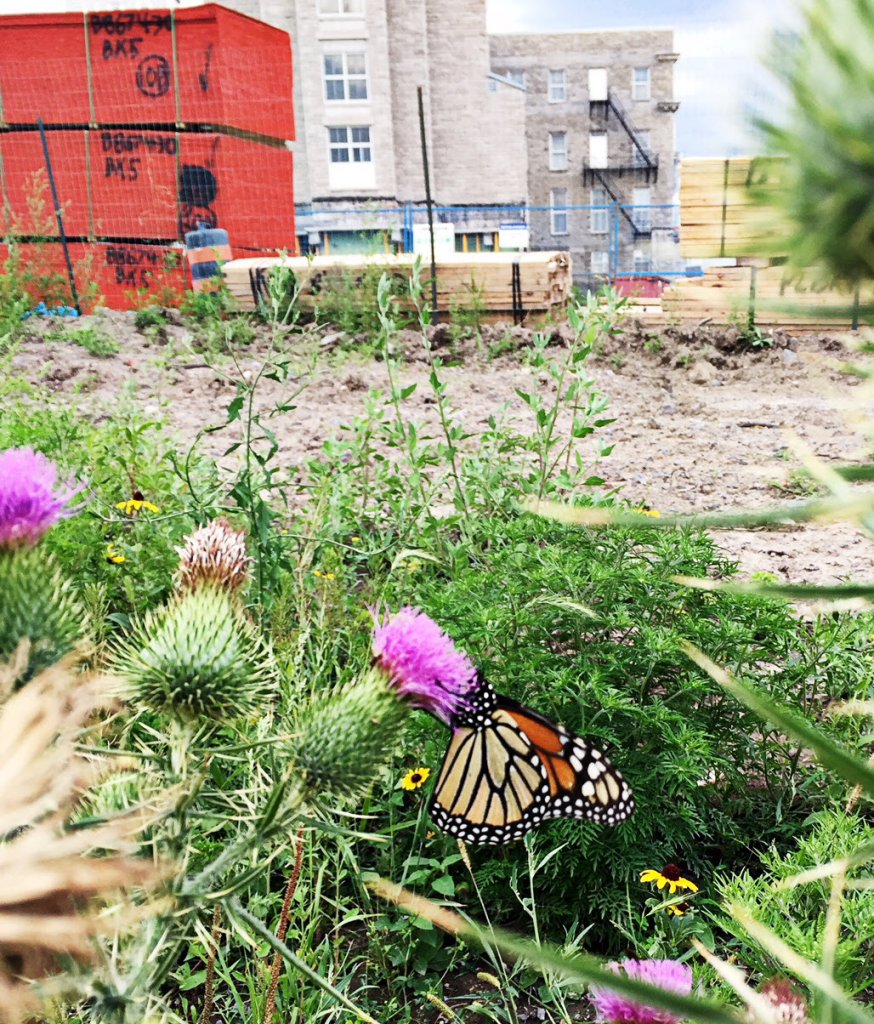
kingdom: Animalia
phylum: Arthropoda
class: Insecta
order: Lepidoptera
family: Nymphalidae
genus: Danaus
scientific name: Danaus plexippus
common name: Monarch
